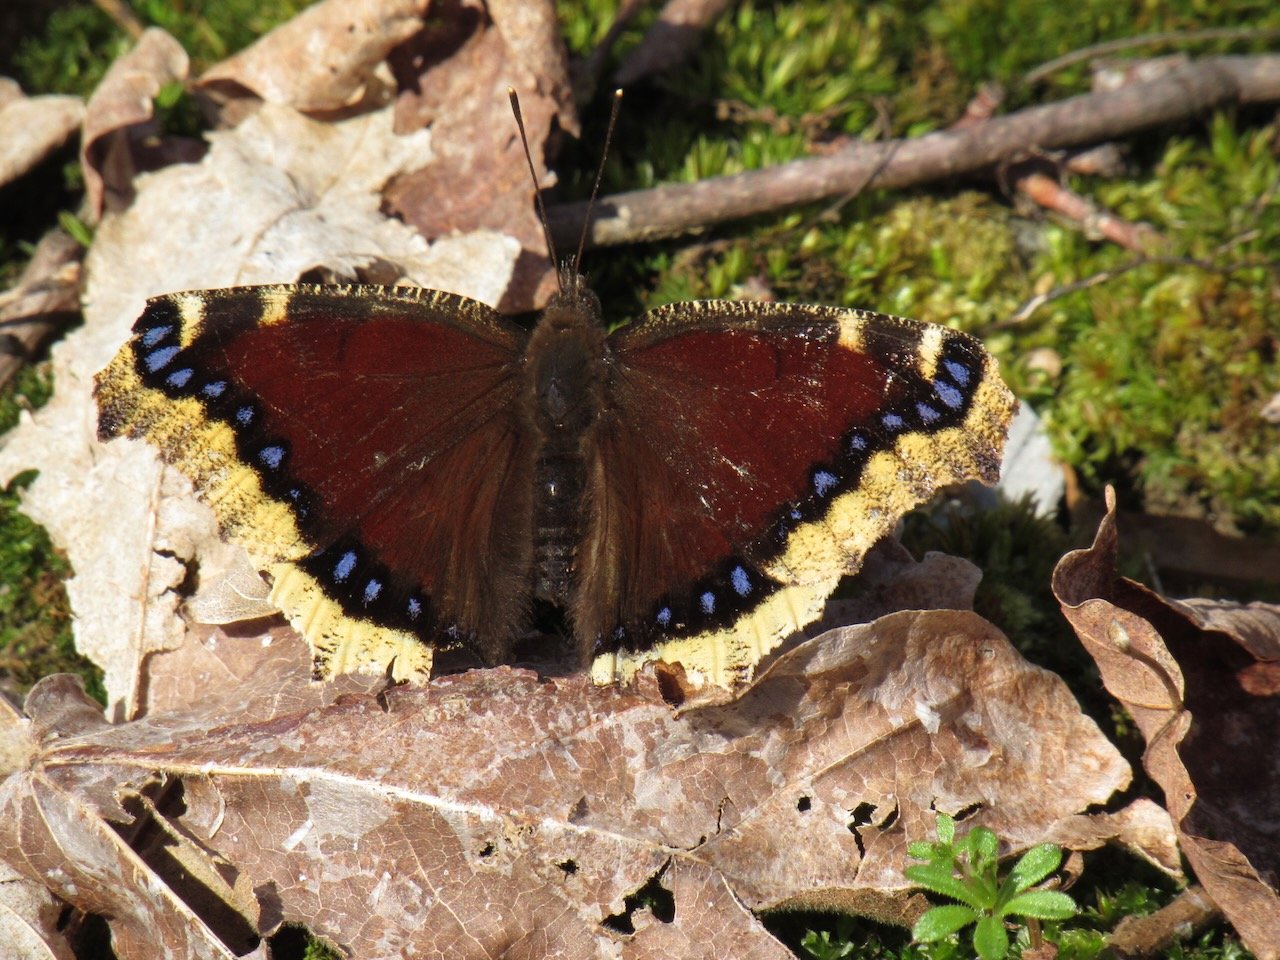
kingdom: Animalia
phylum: Arthropoda
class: Insecta
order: Lepidoptera
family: Nymphalidae
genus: Nymphalis
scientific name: Nymphalis antiopa
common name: Mourning Cloak
